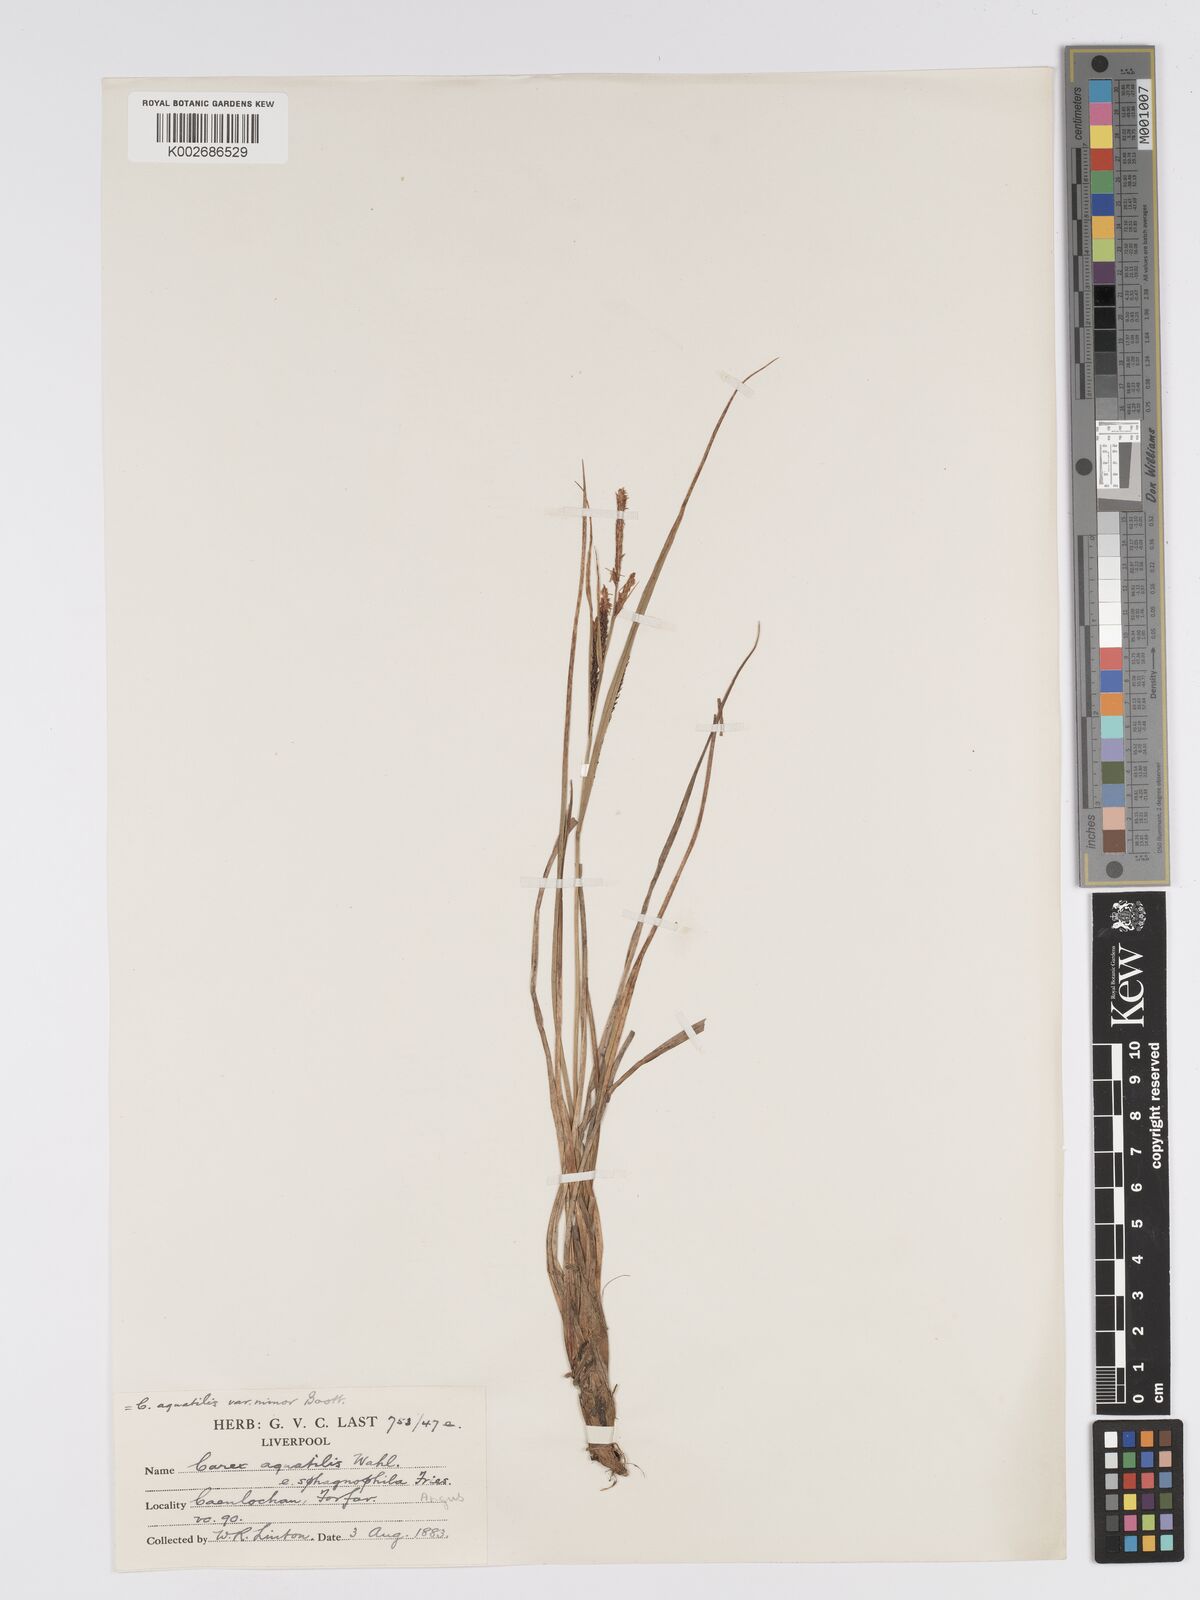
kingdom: Plantae
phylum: Tracheophyta
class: Liliopsida
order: Poales
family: Cyperaceae
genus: Carex
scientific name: Carex aquatilis
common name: Water sedge
